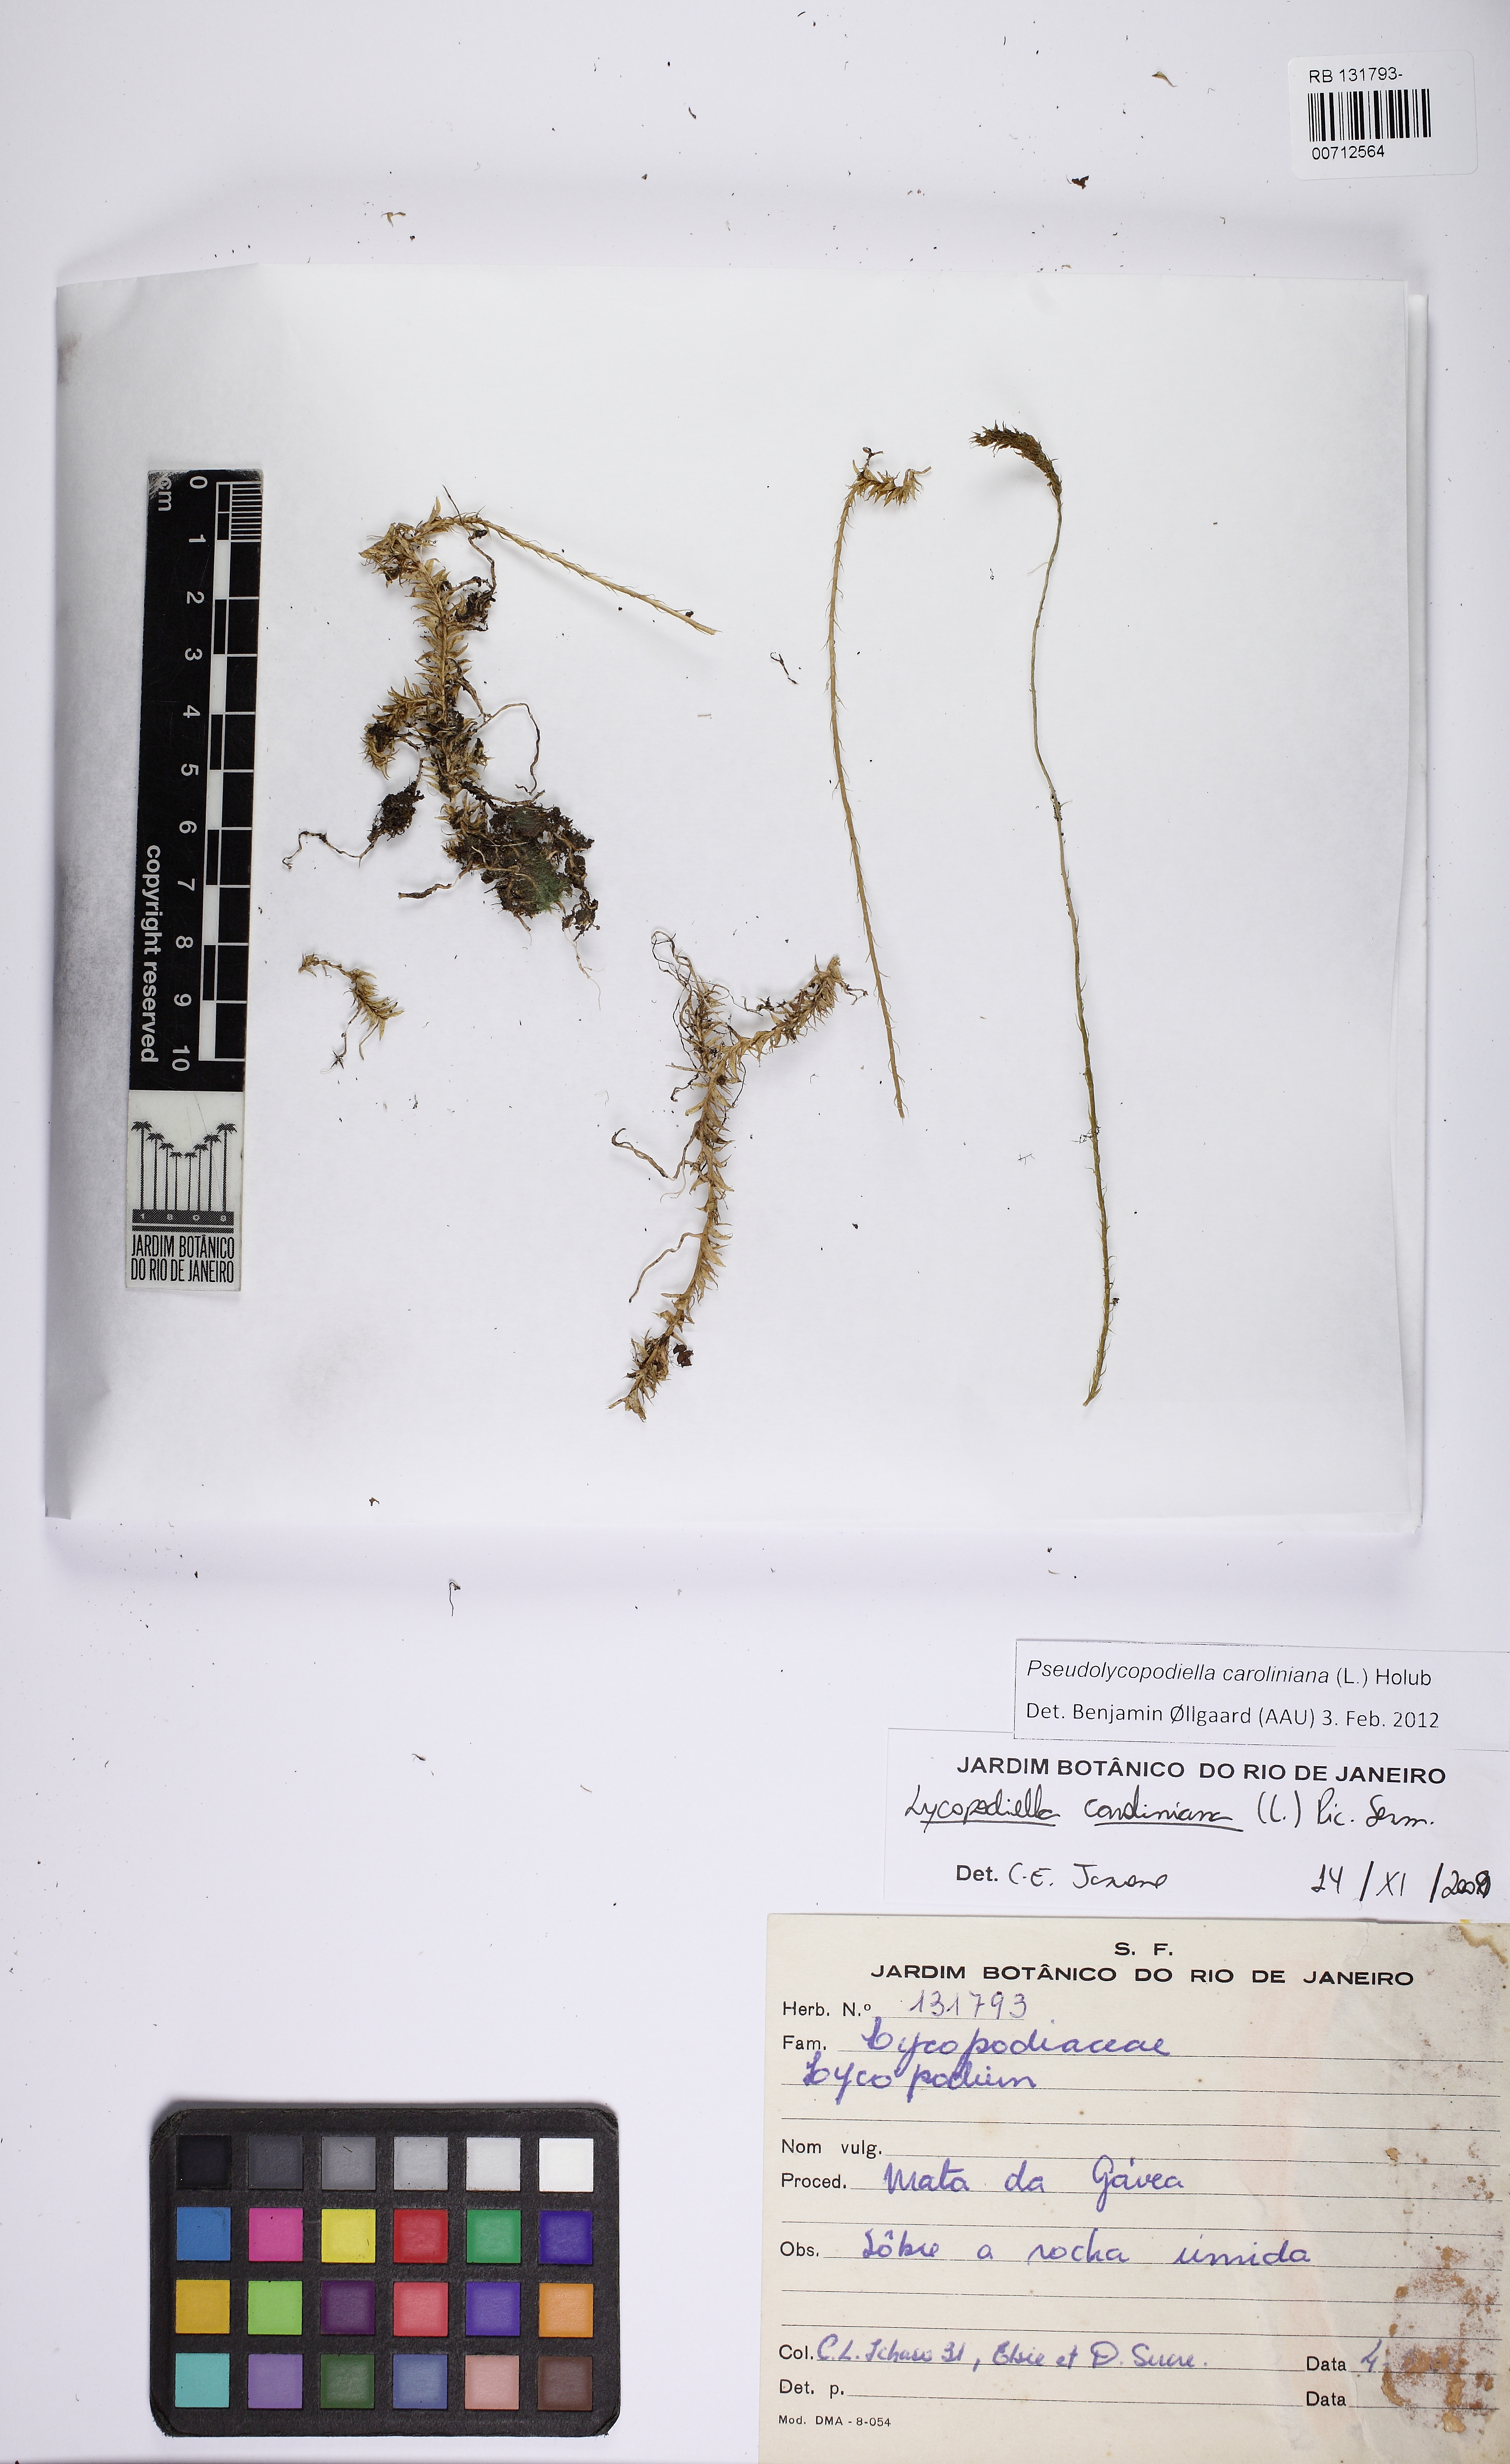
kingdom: Plantae
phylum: Tracheophyta
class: Lycopodiopsida
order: Lycopodiales
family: Lycopodiaceae
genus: Pseudolycopodiella
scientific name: Pseudolycopodiella caroliniana
